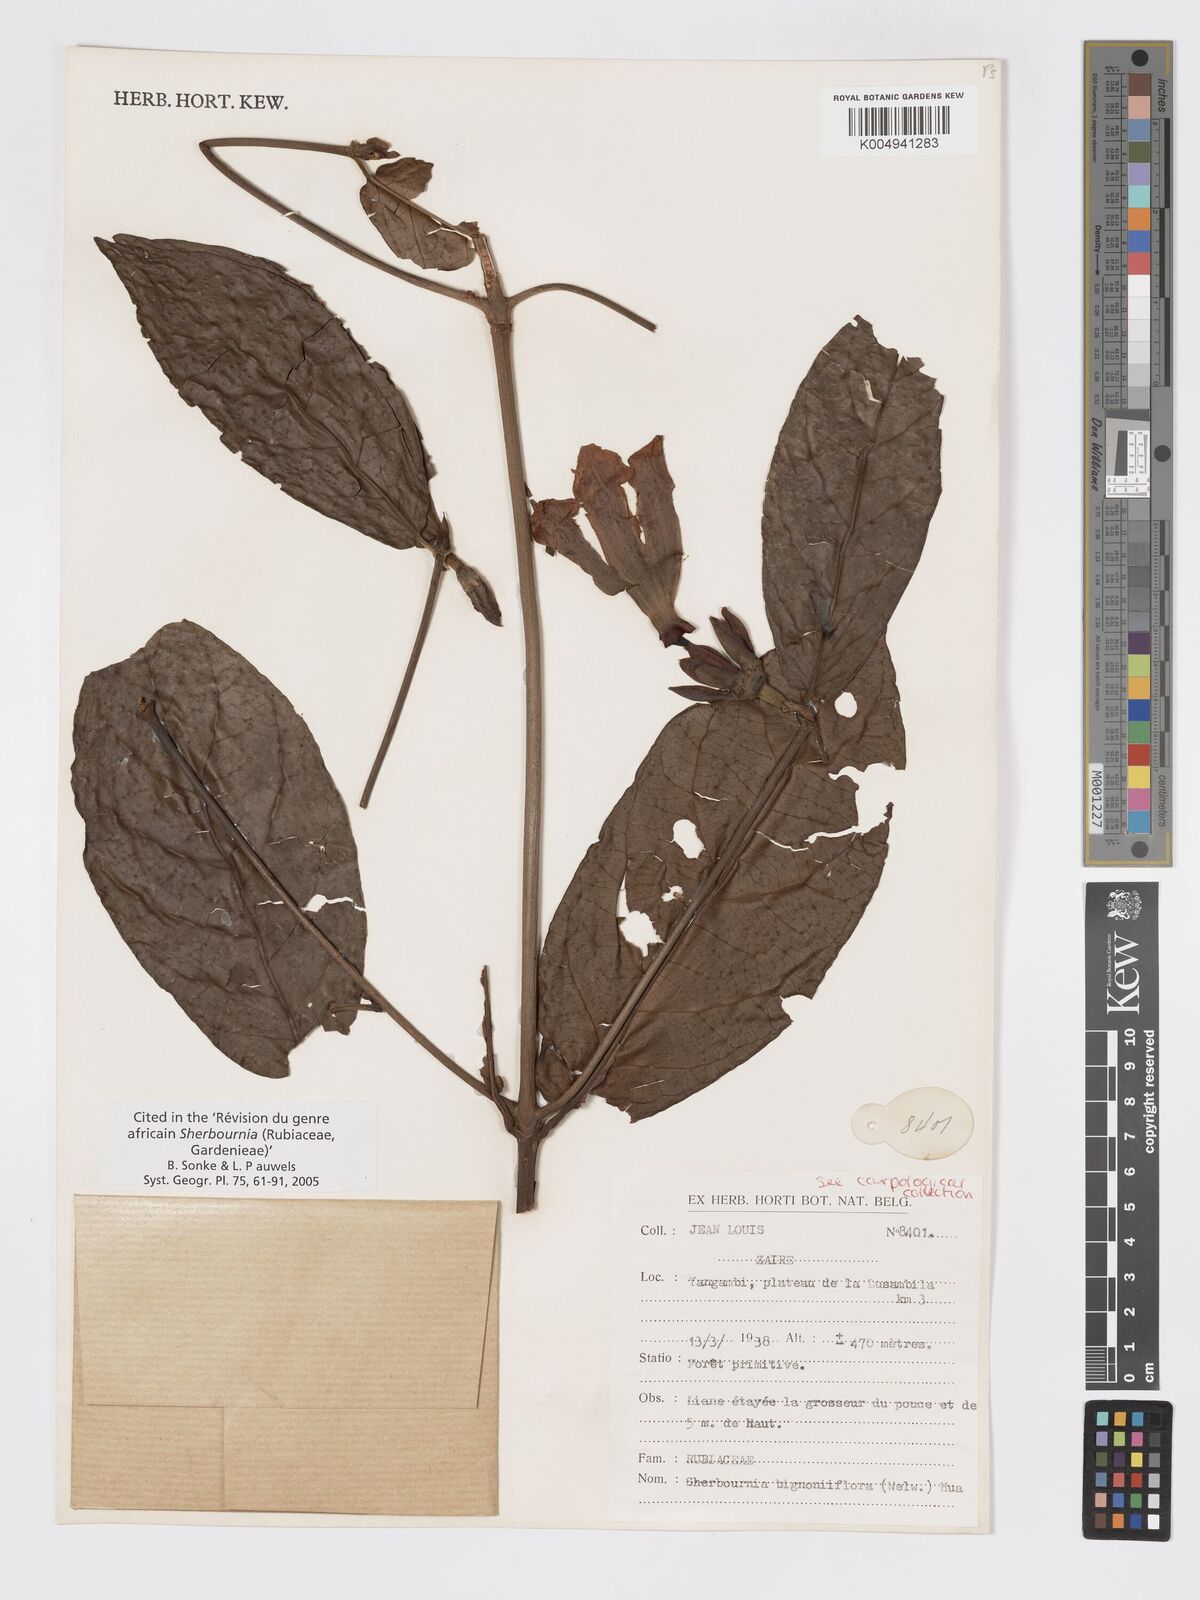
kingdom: Plantae
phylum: Tracheophyta
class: Magnoliopsida
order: Gentianales
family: Rubiaceae
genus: Sherbournia
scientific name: Sherbournia bignoniiflora
